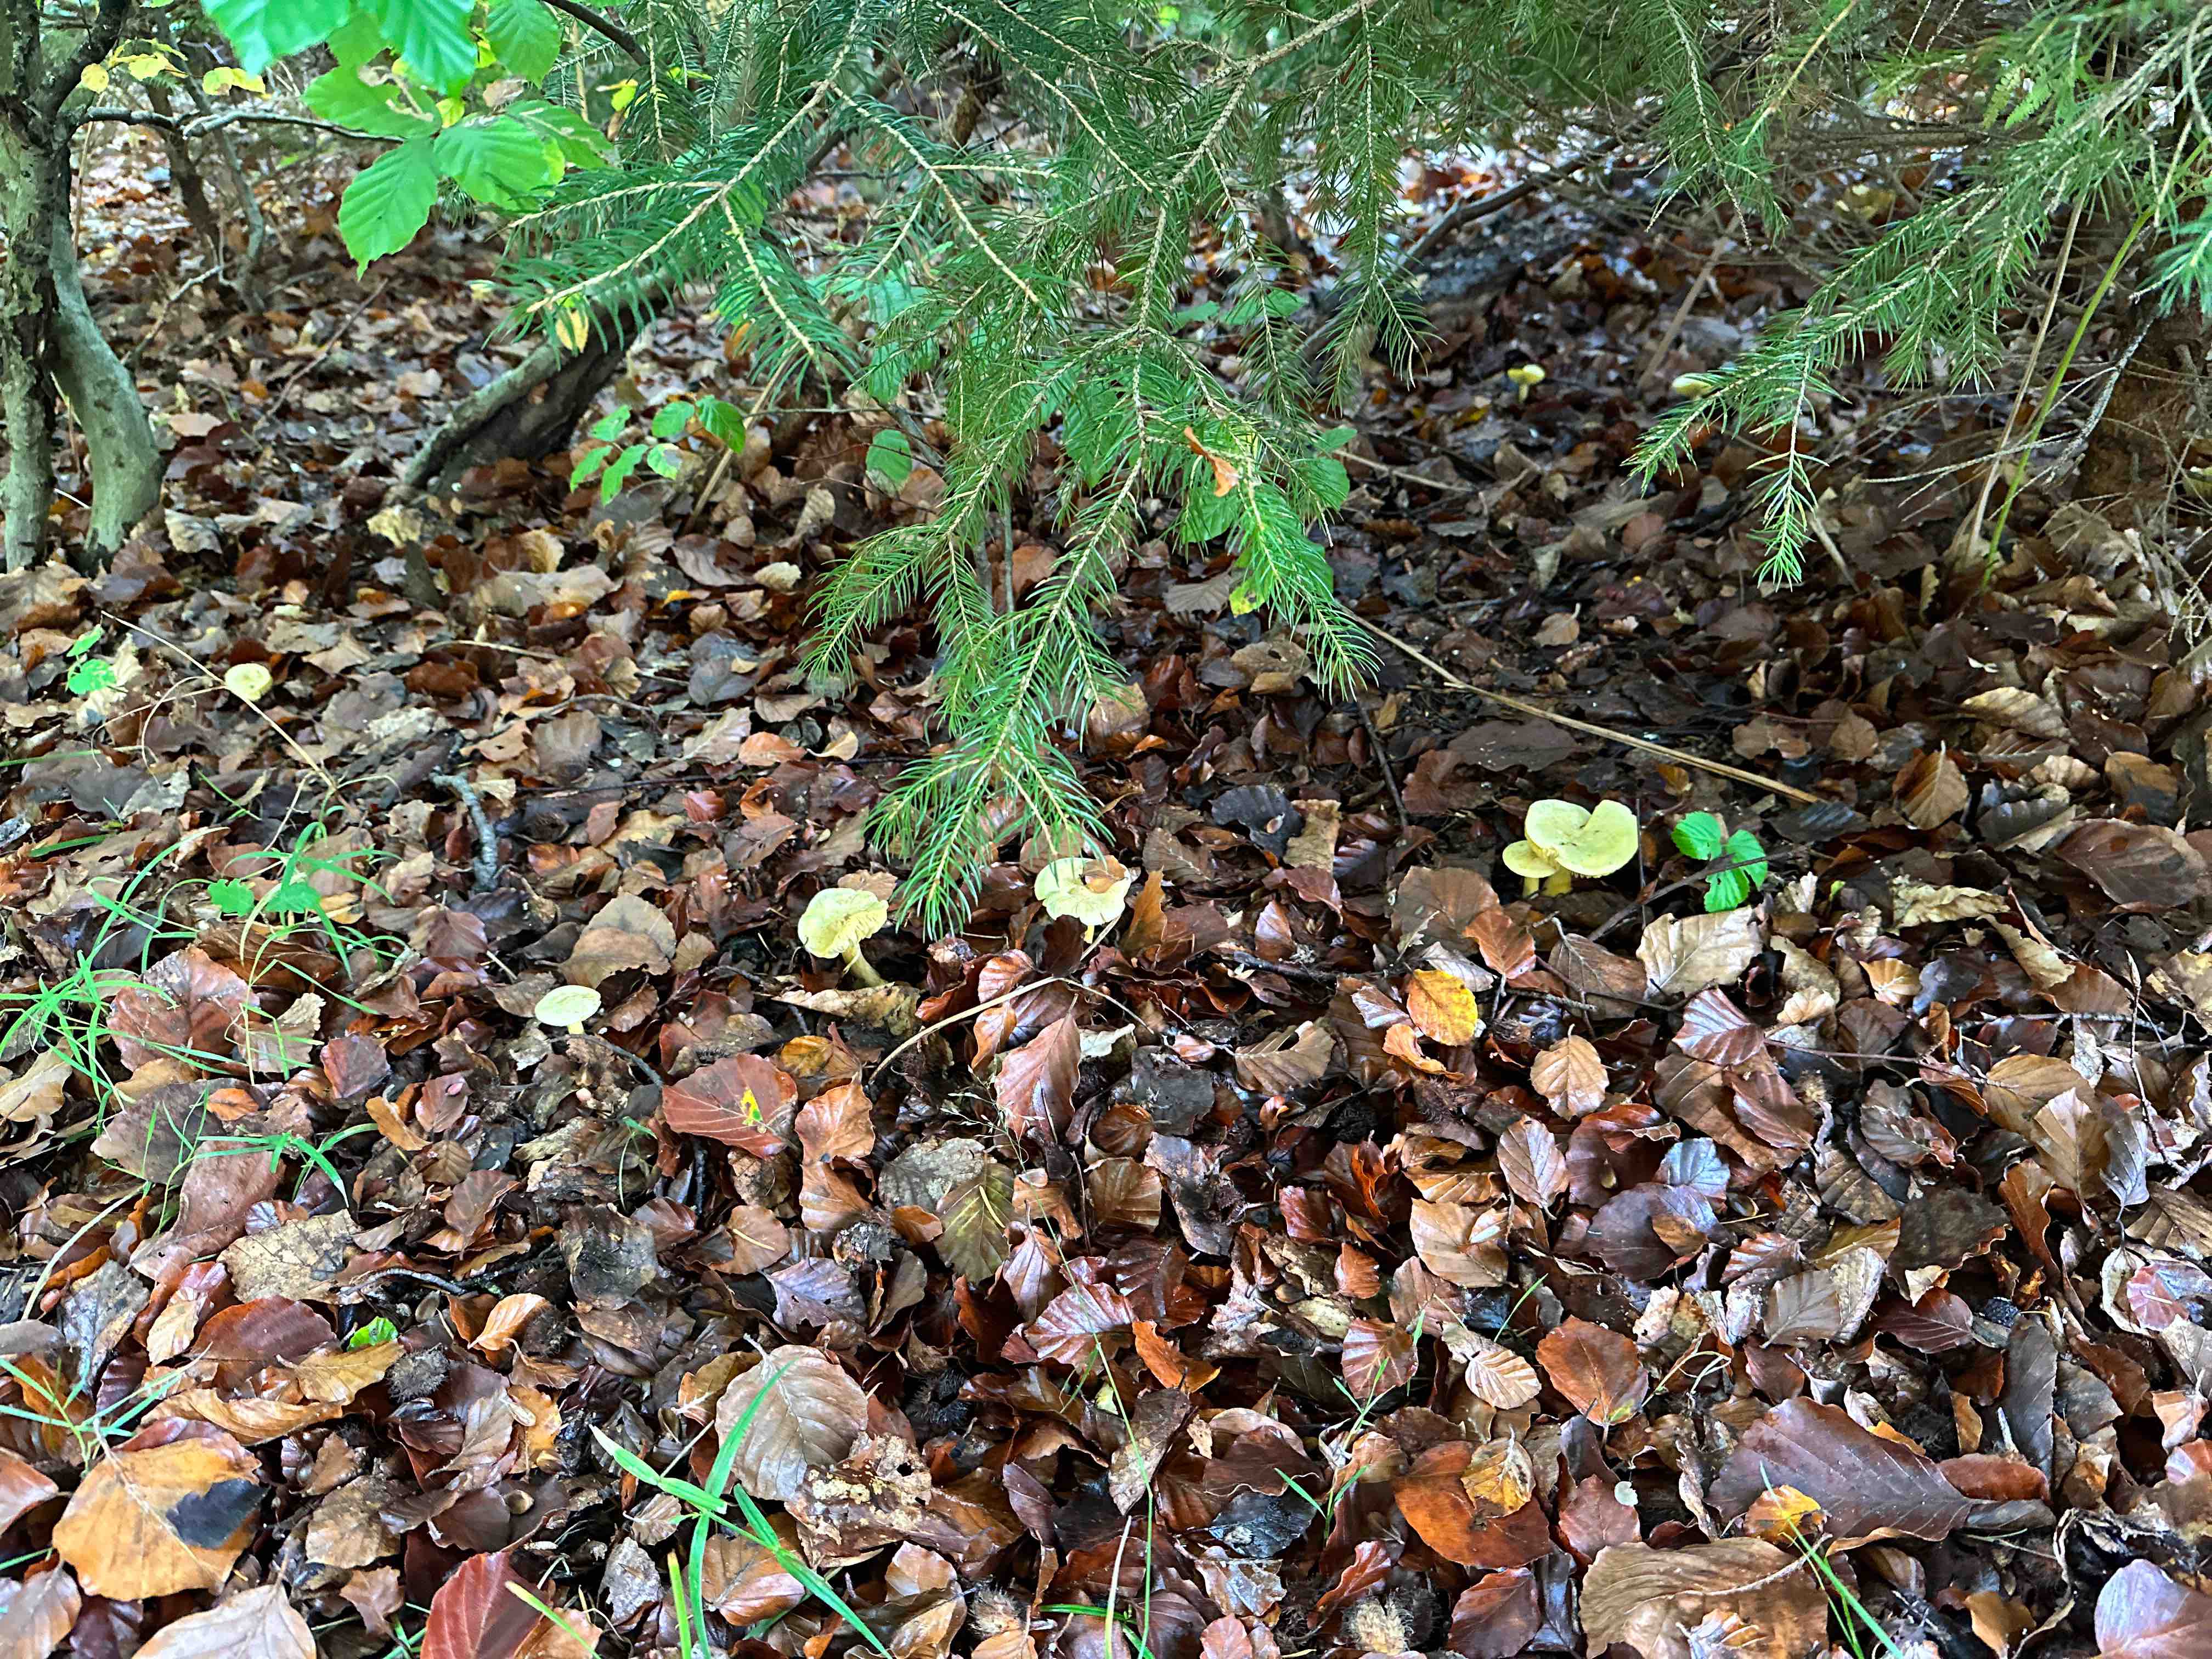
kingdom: Fungi
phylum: Basidiomycota
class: Agaricomycetes
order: Agaricales
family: Tricholomataceae
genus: Tricholoma
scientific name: Tricholoma sulphureum
